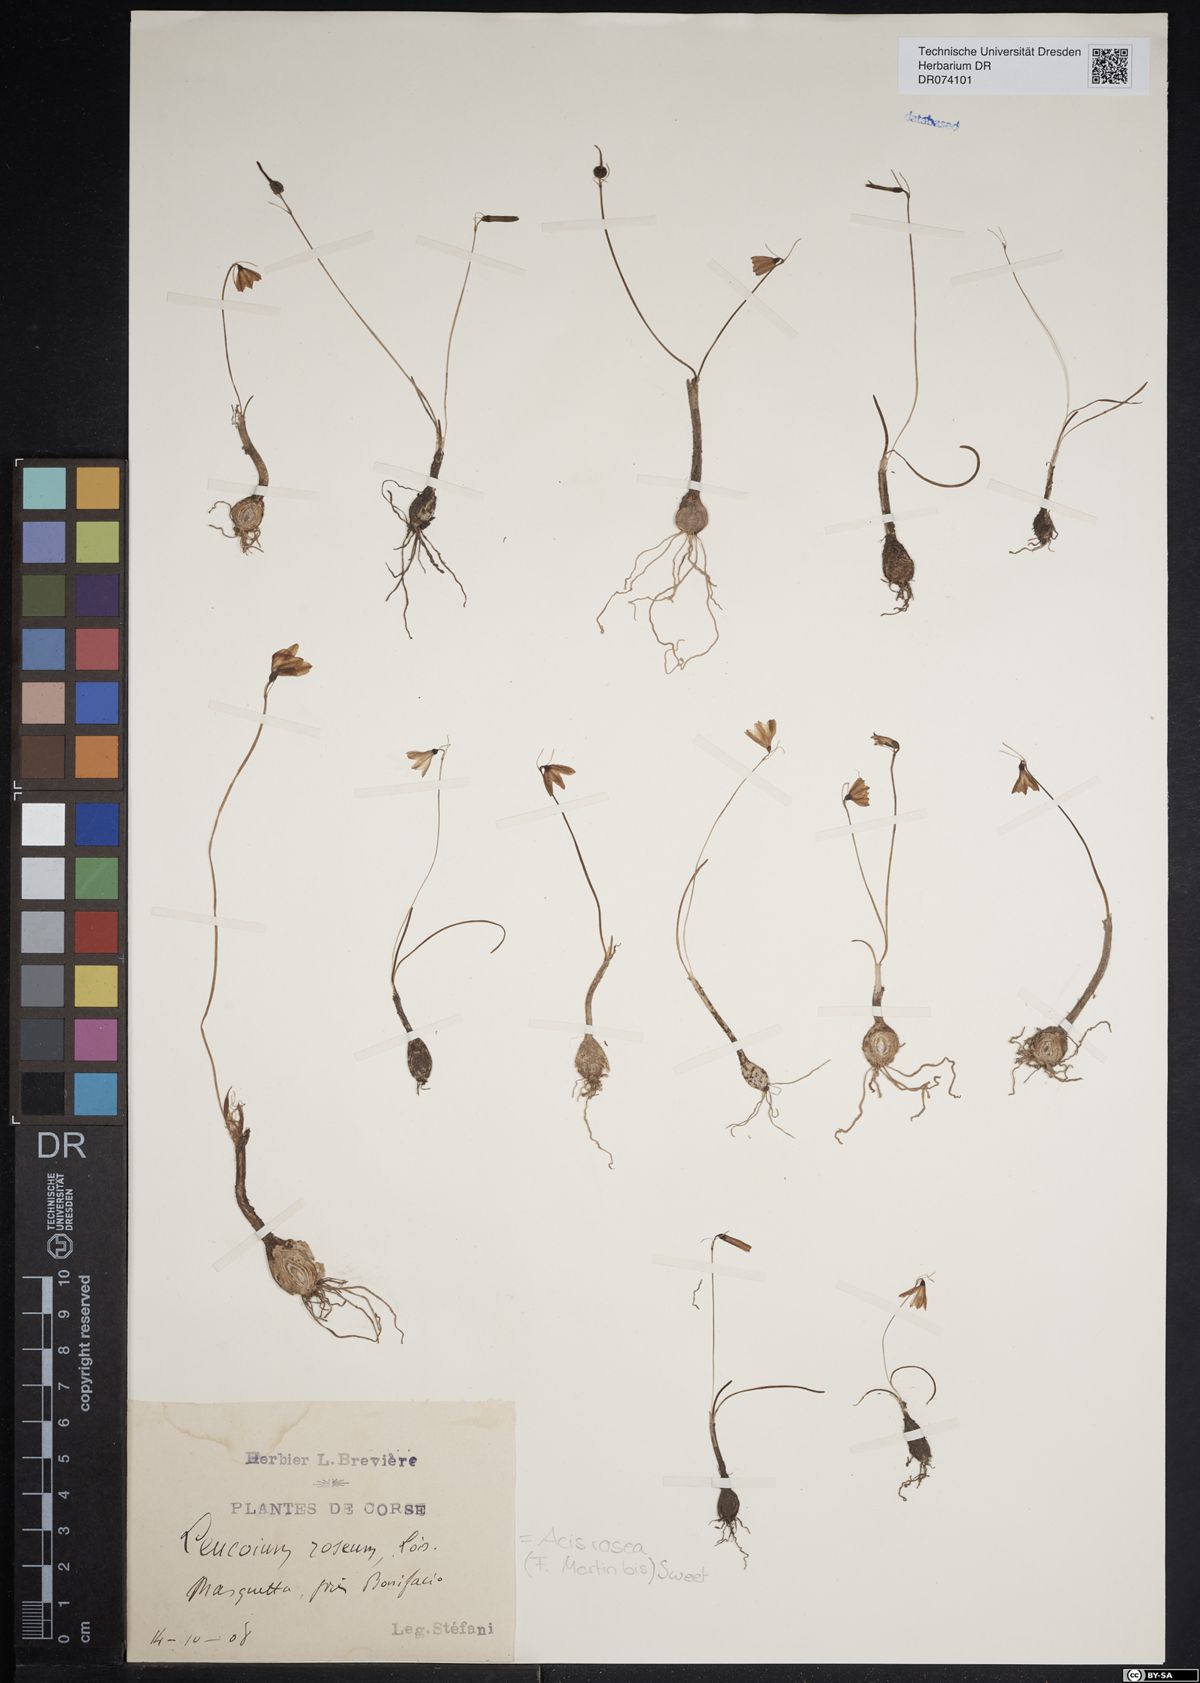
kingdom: Plantae
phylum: Tracheophyta
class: Liliopsida
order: Asparagales
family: Amaryllidaceae
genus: Acis
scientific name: Acis rosea
